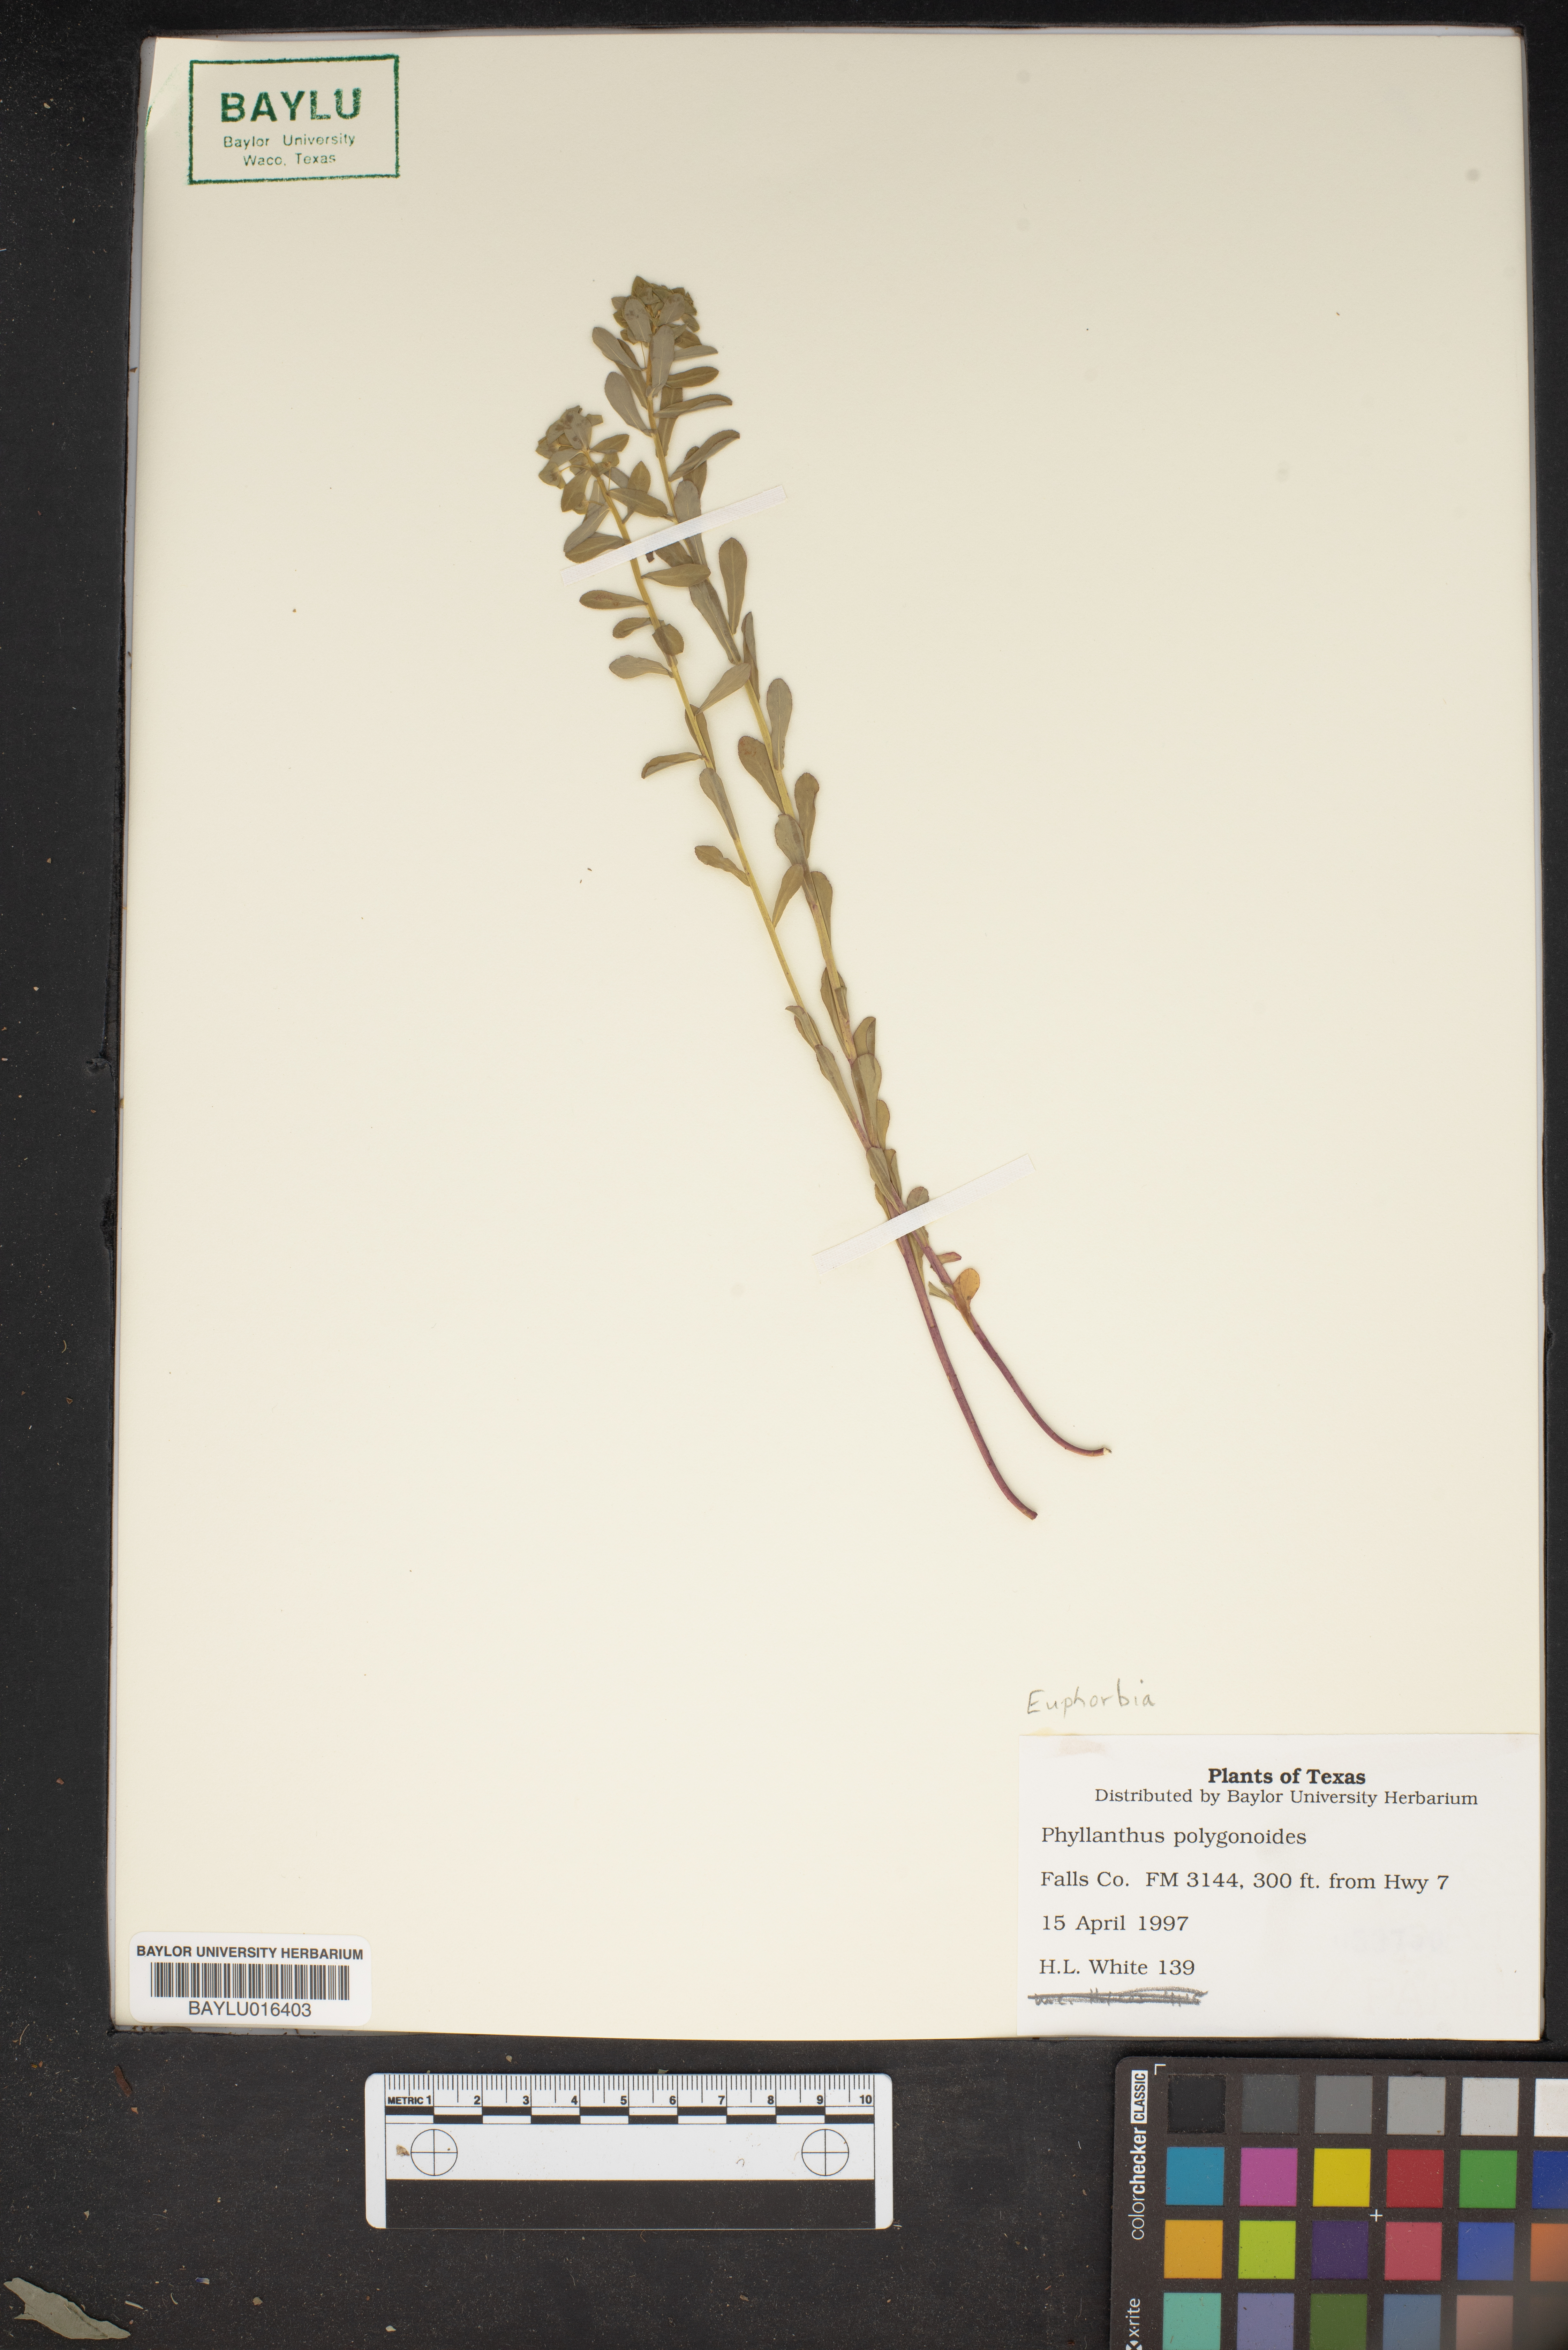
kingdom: Plantae
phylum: Tracheophyta
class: Magnoliopsida
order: Malpighiales
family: Phyllanthaceae
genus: Phyllanthus
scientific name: Phyllanthus polygonoides
